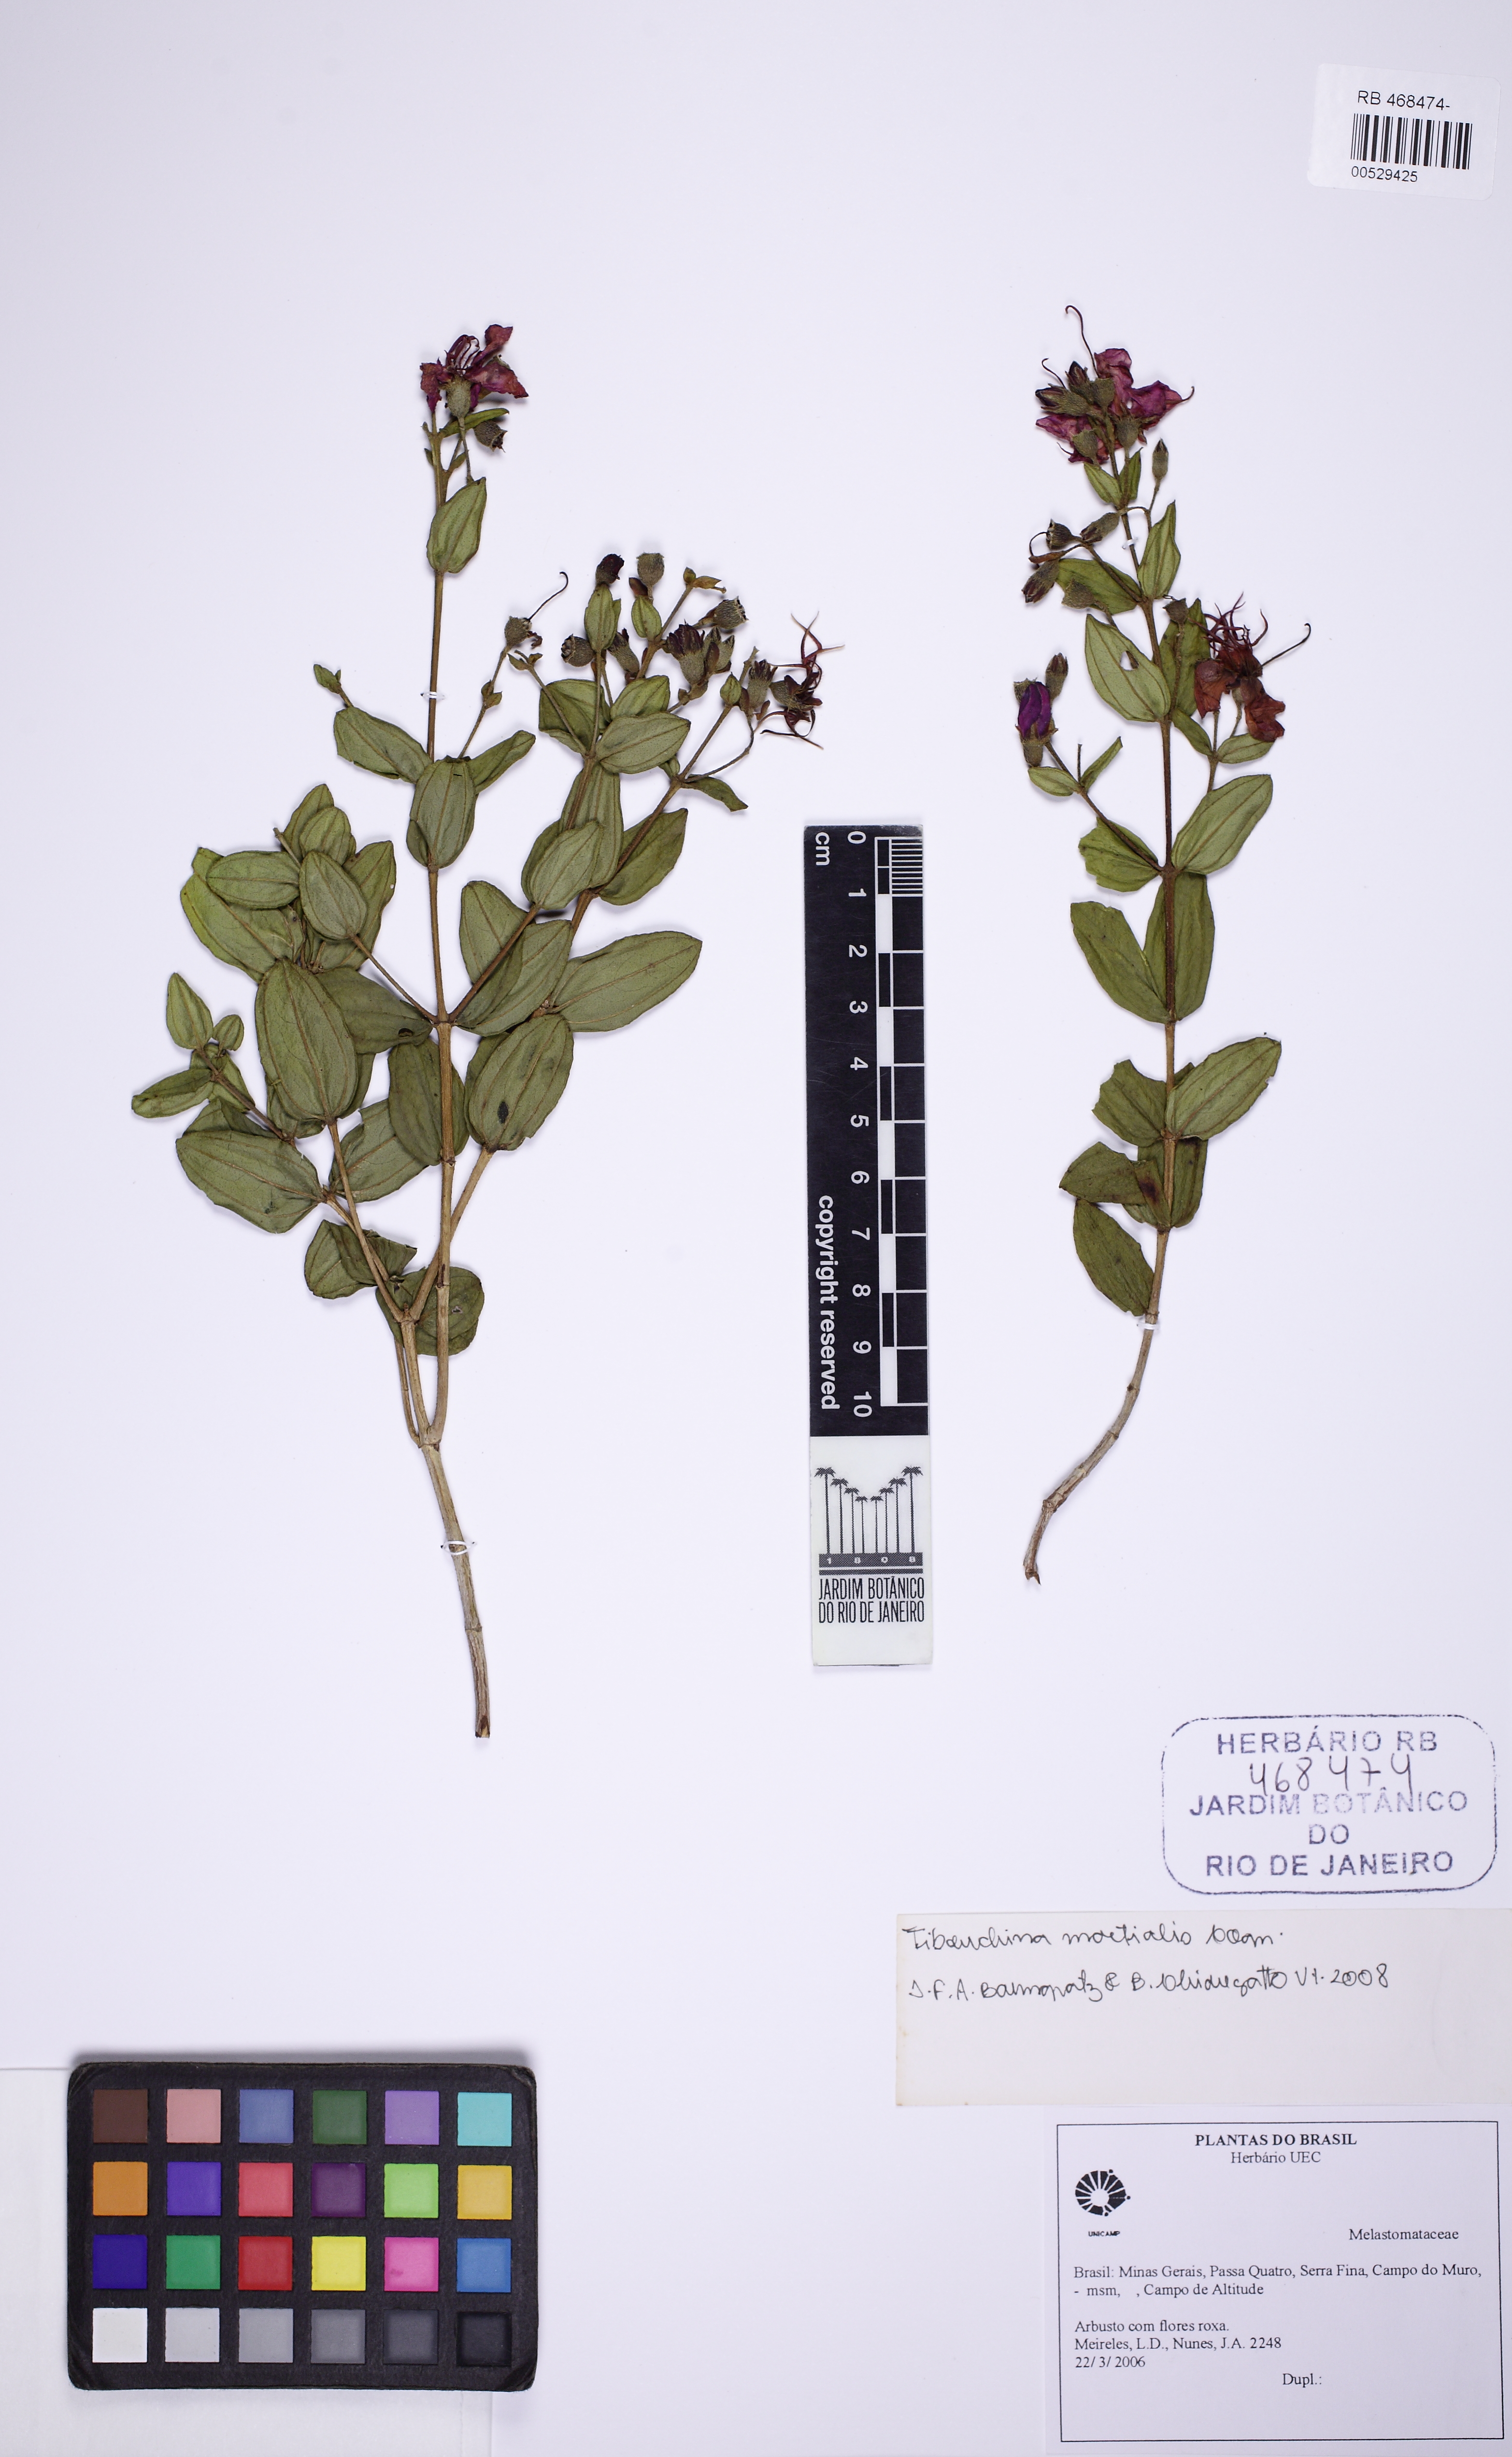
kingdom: Plantae
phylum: Tracheophyta
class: Magnoliopsida
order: Myrtales
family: Melastomataceae
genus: Pleroma
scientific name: Pleroma martiale
